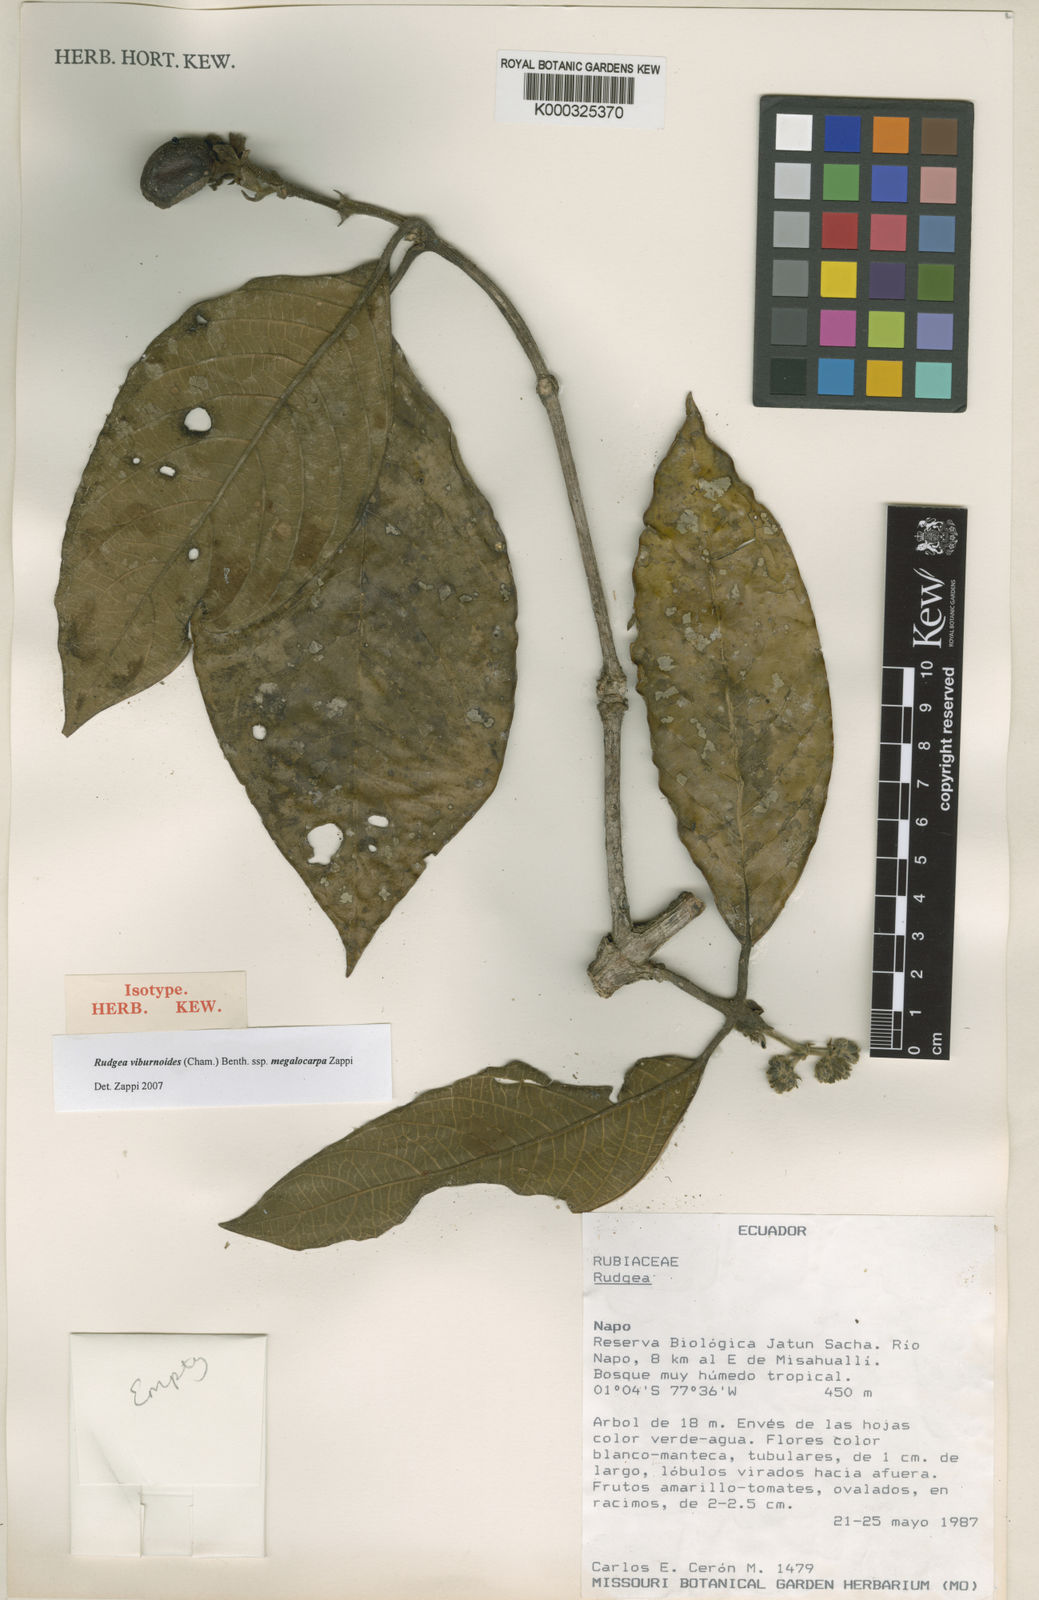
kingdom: Plantae
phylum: Tracheophyta
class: Magnoliopsida
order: Gentianales
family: Rubiaceae
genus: Rudgea
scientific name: Rudgea viburnoides
